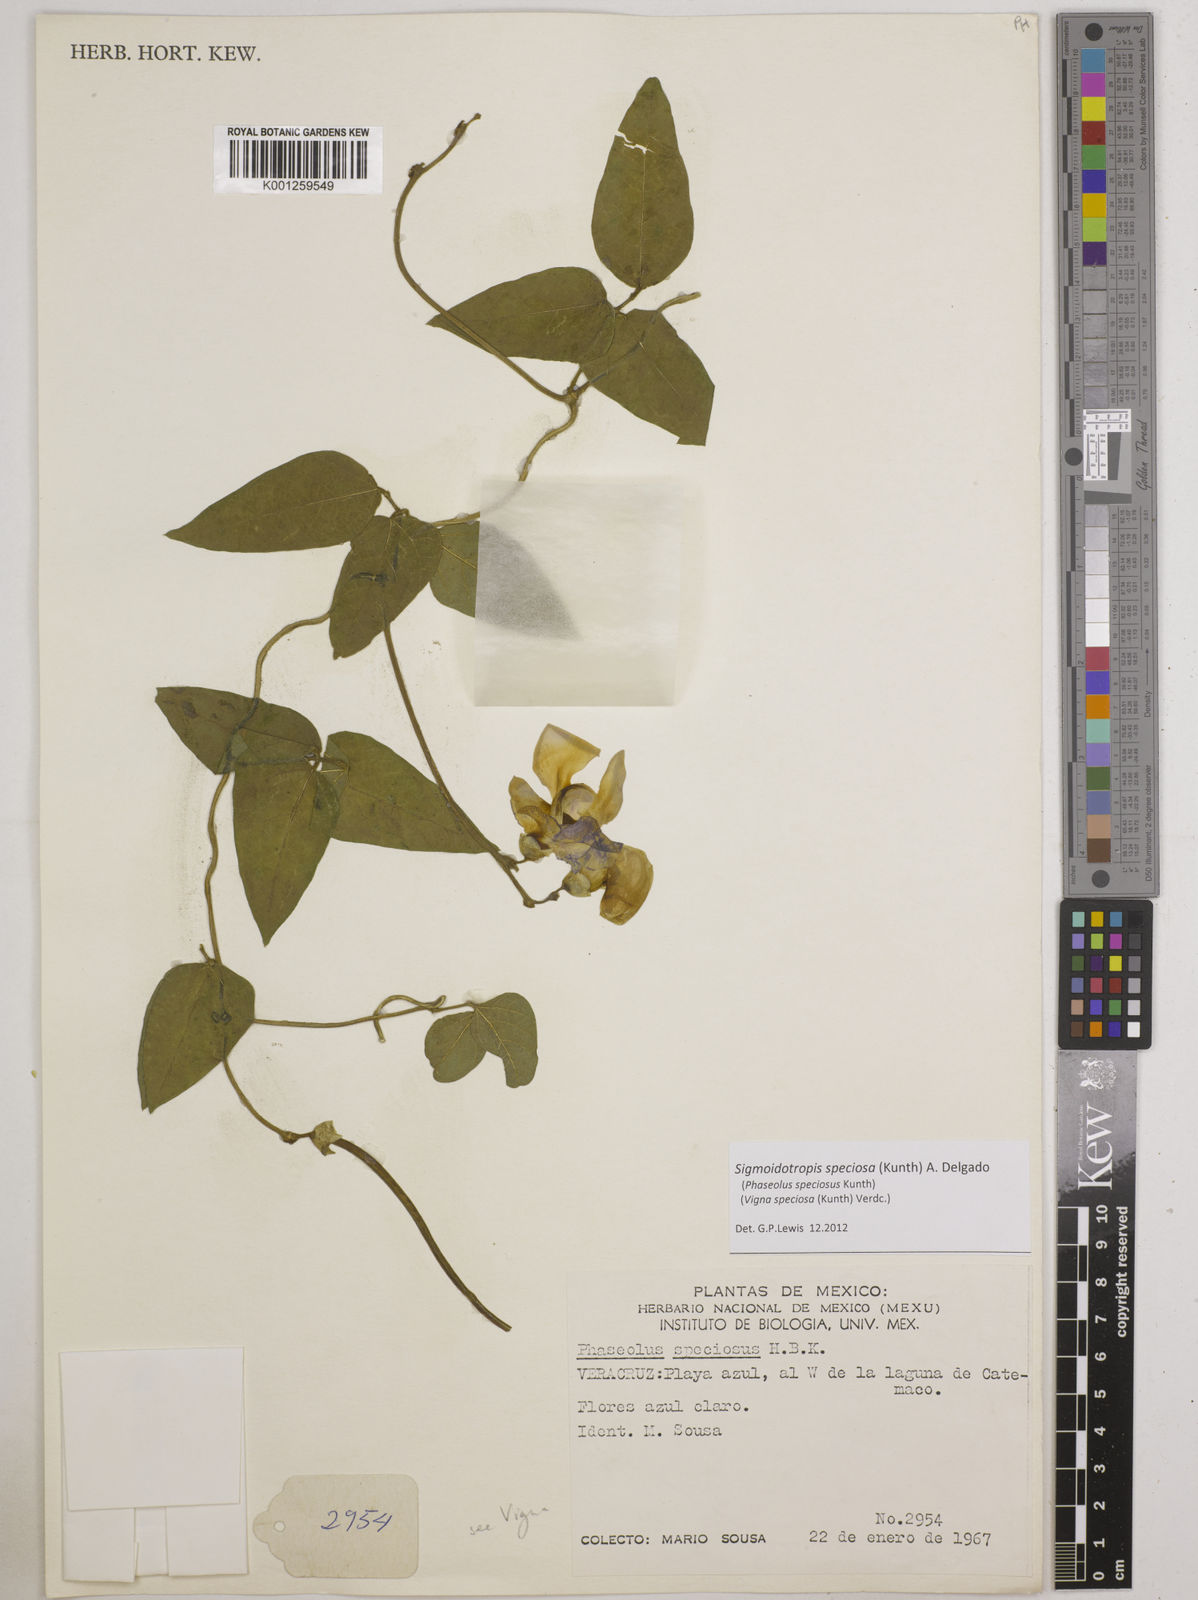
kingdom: Plantae
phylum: Tracheophyta
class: Magnoliopsida
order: Fabales
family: Fabaceae
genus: Sigmoidotropis
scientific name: Sigmoidotropis speciosa
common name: Snail flower
